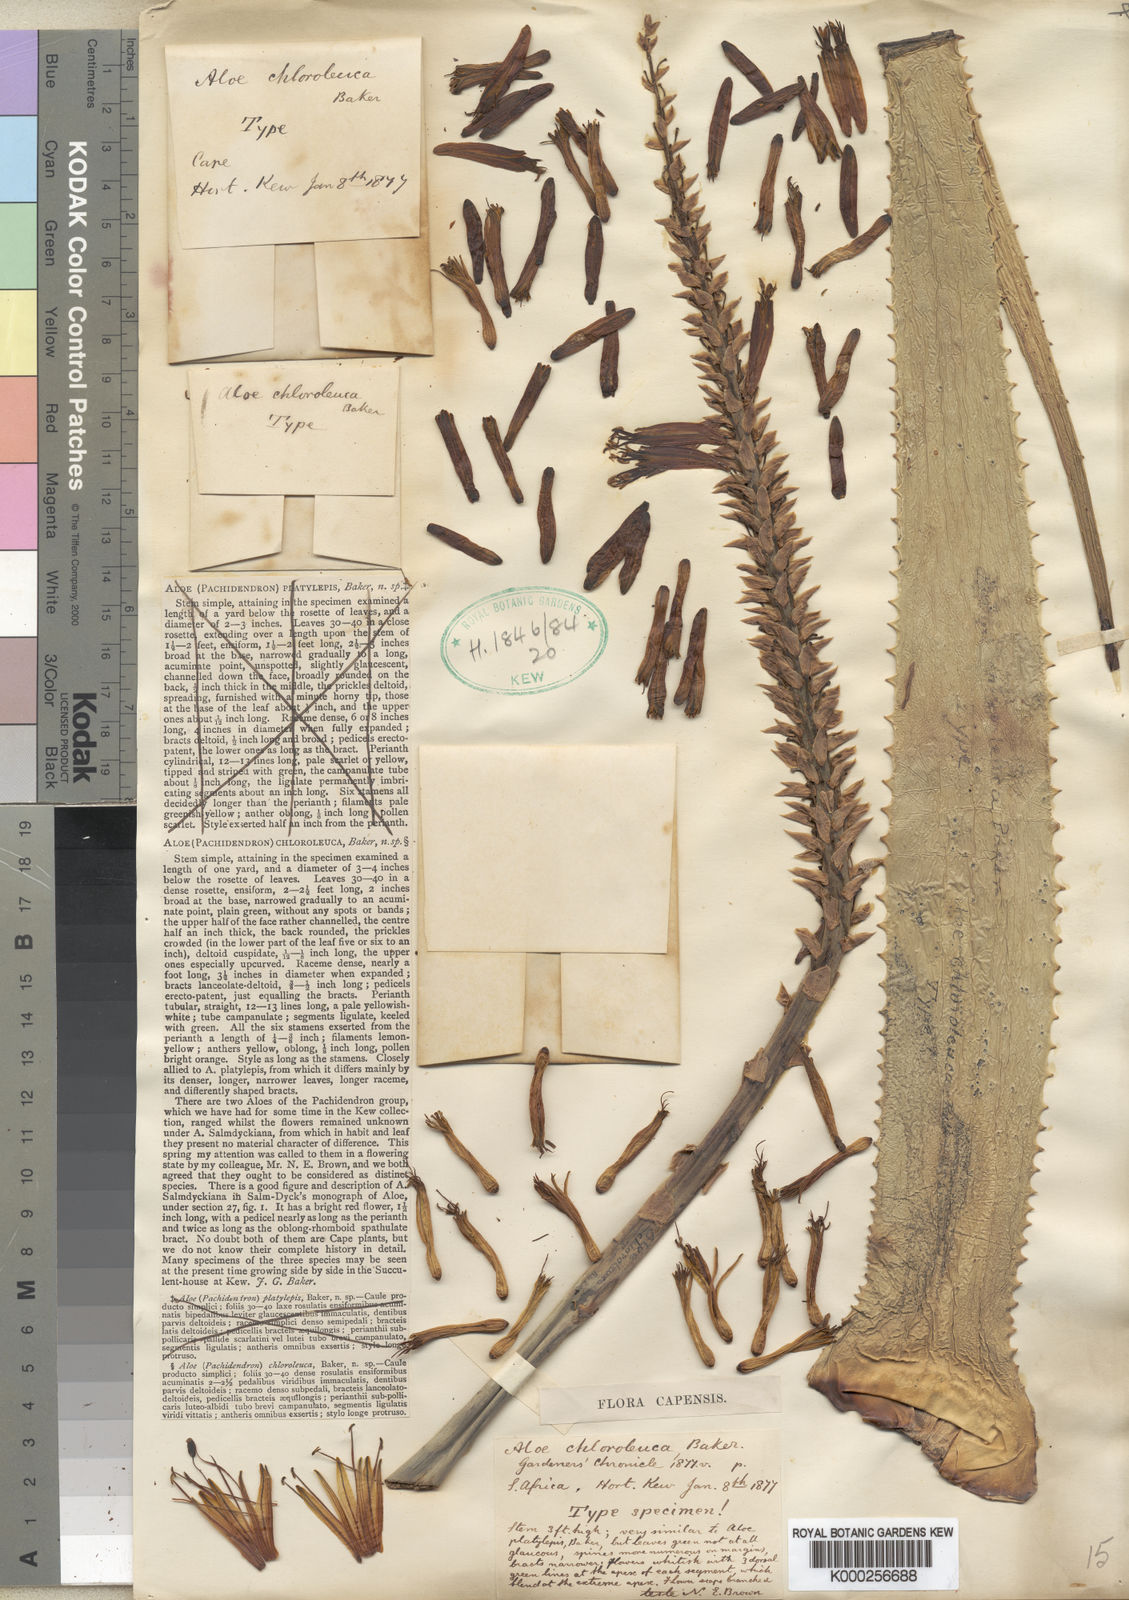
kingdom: Plantae
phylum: Tracheophyta
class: Liliopsida
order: Asparagales
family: Asphodelaceae
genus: Aloe
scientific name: Aloe hexapetala
